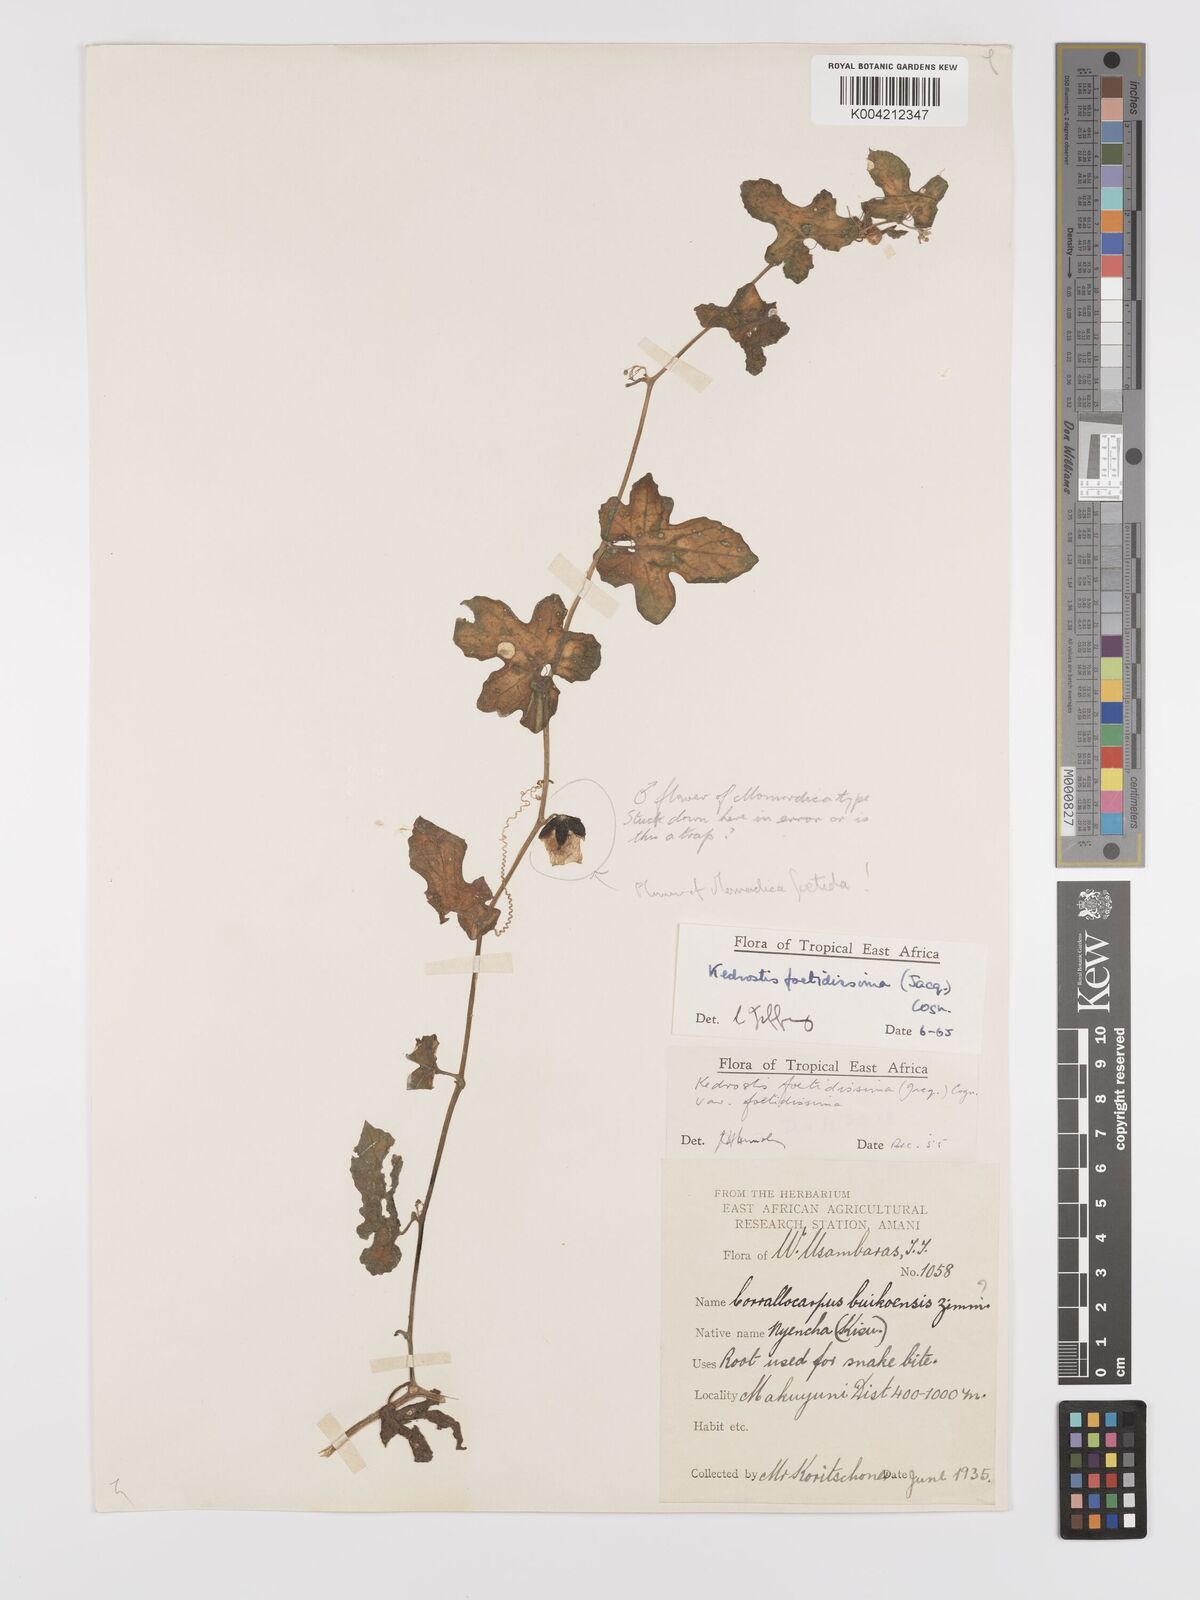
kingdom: Plantae
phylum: Tracheophyta
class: Magnoliopsida
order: Cucurbitales
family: Cucurbitaceae
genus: Kedrostis
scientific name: Kedrostis foetidissima
